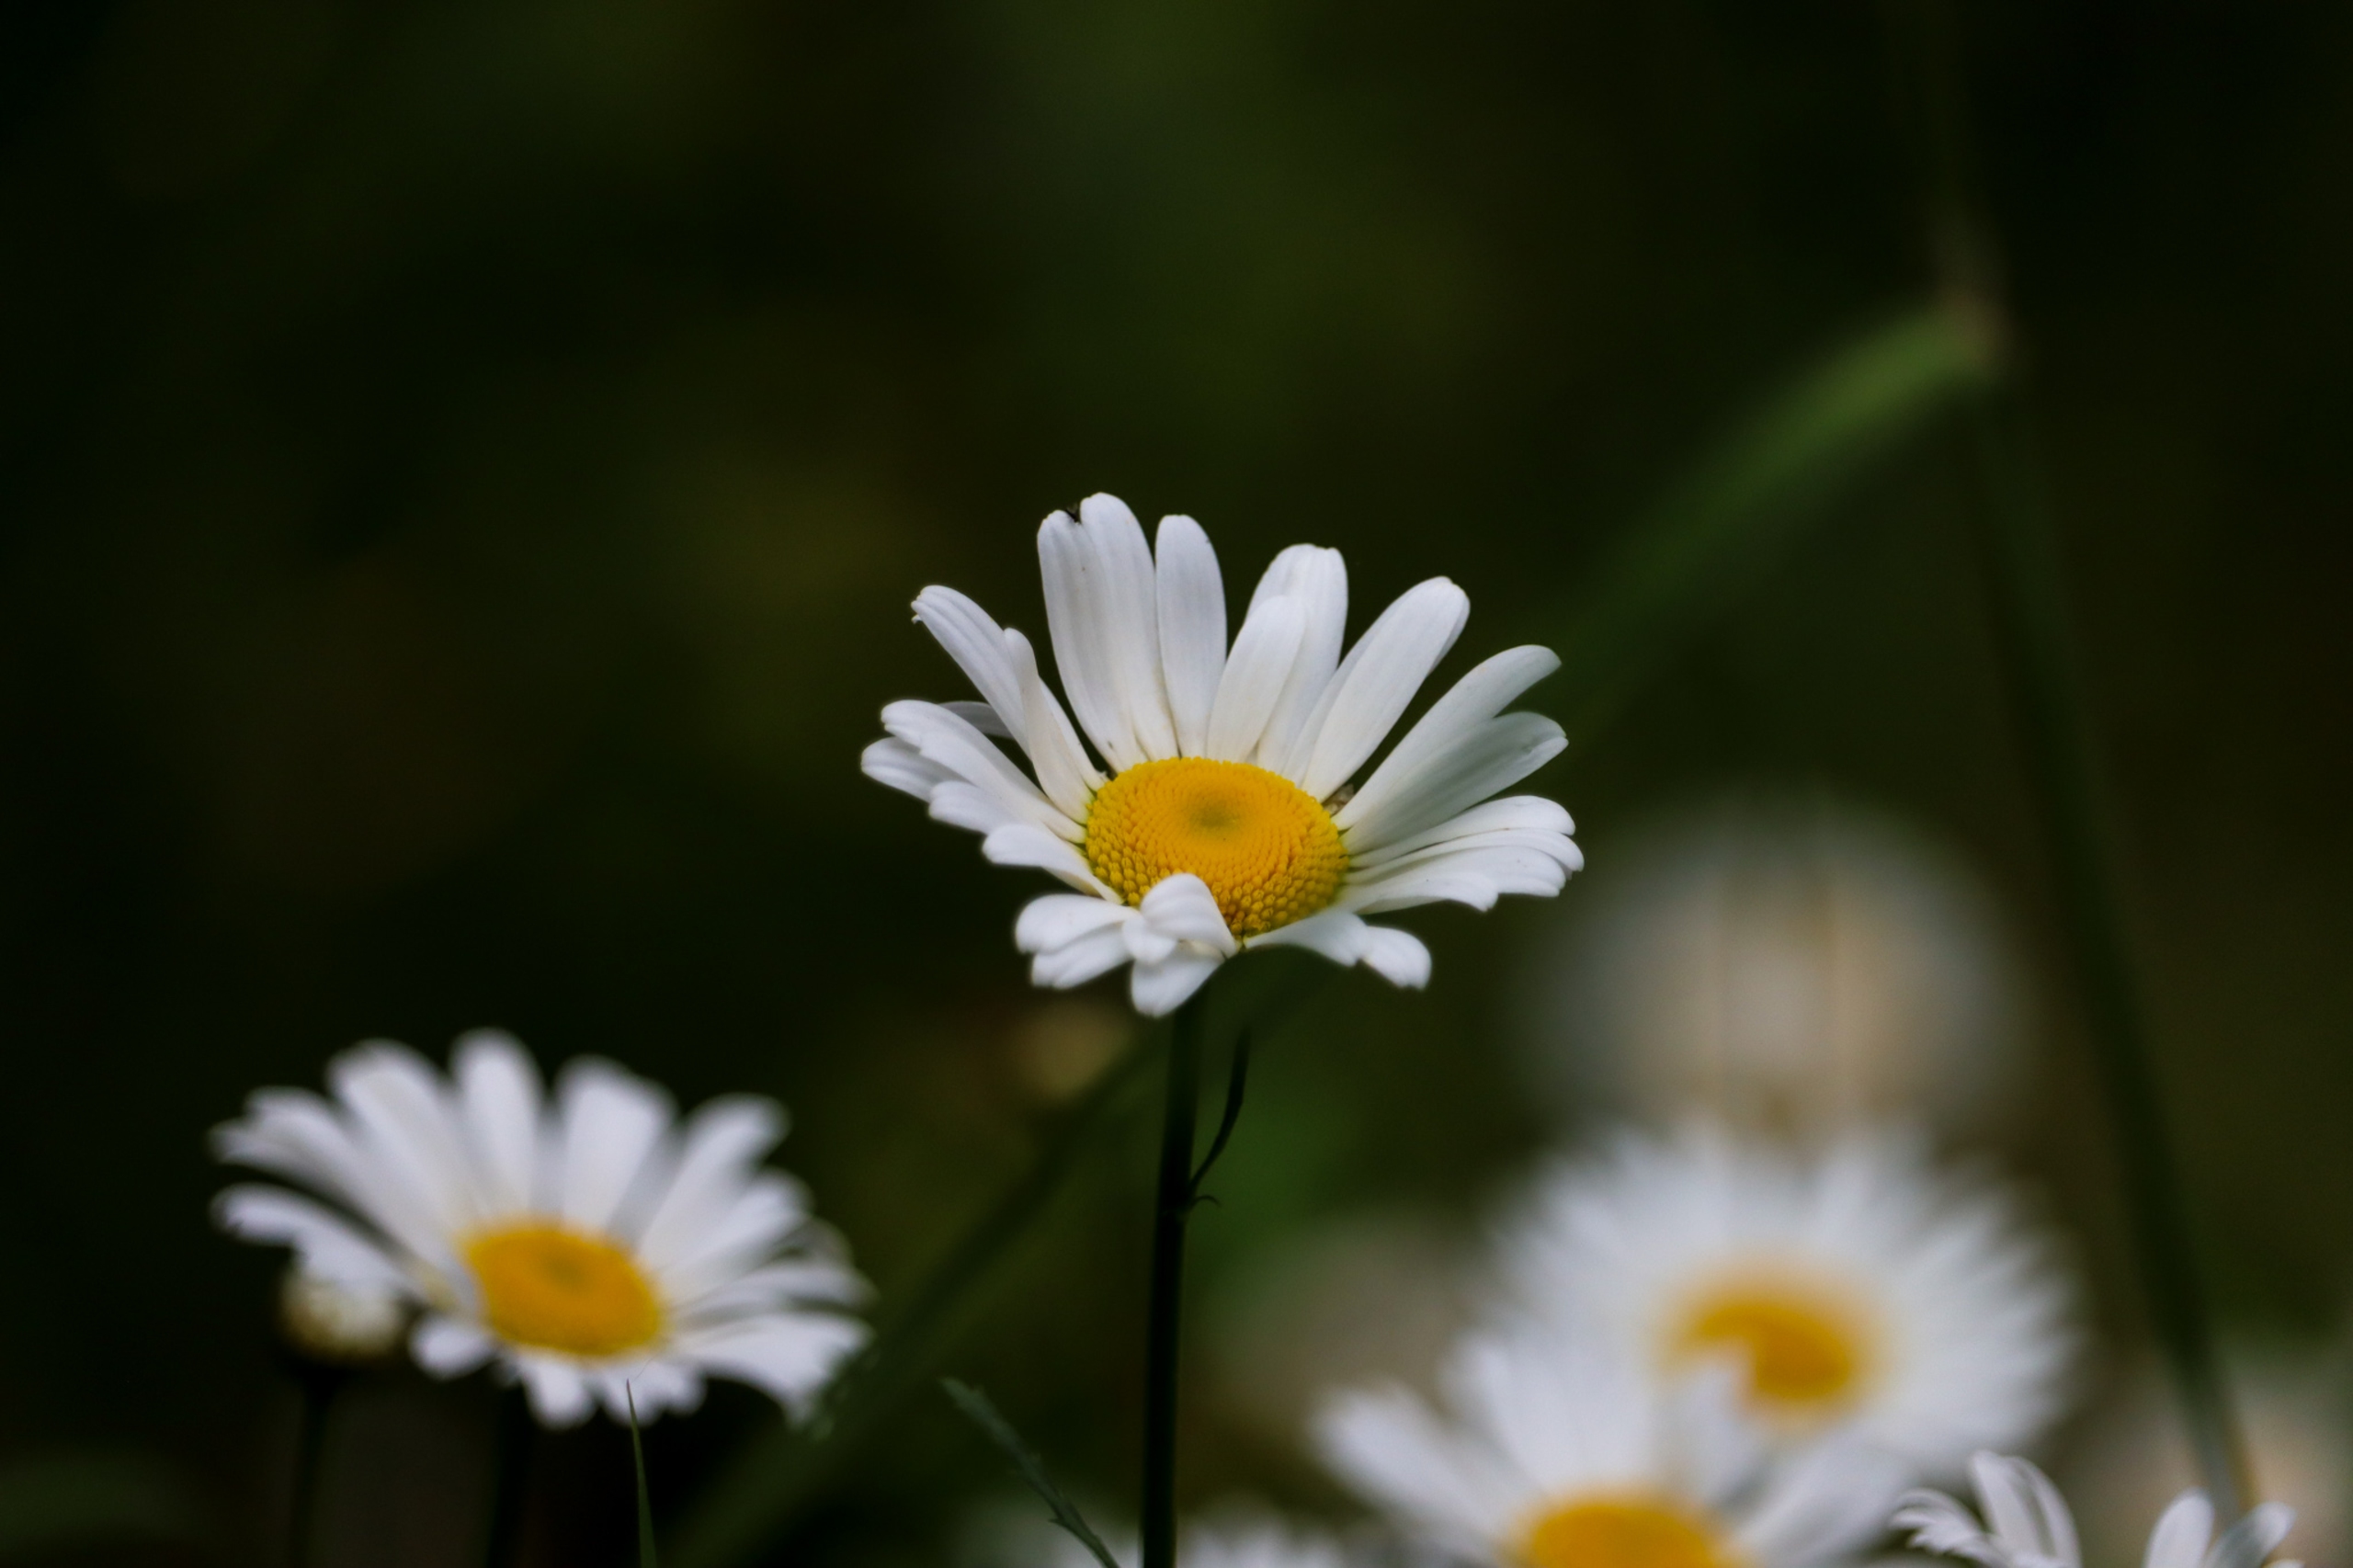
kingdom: Plantae
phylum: Tracheophyta
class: Magnoliopsida
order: Asterales
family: Asteraceae
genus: Leucanthemum
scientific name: Leucanthemum vulgare
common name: Hvid okseøje
